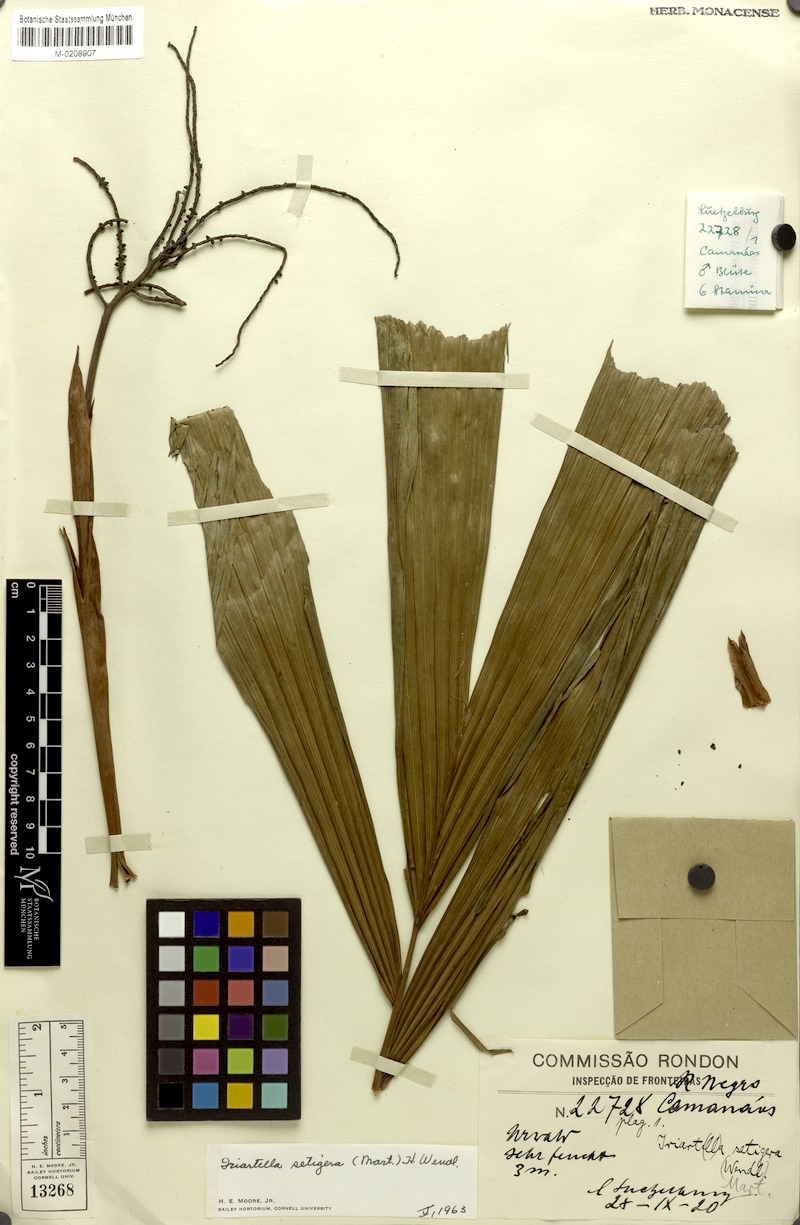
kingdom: Plantae
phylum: Tracheophyta
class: Liliopsida
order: Arecales
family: Arecaceae
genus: Iriartella
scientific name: Iriartella setigera
